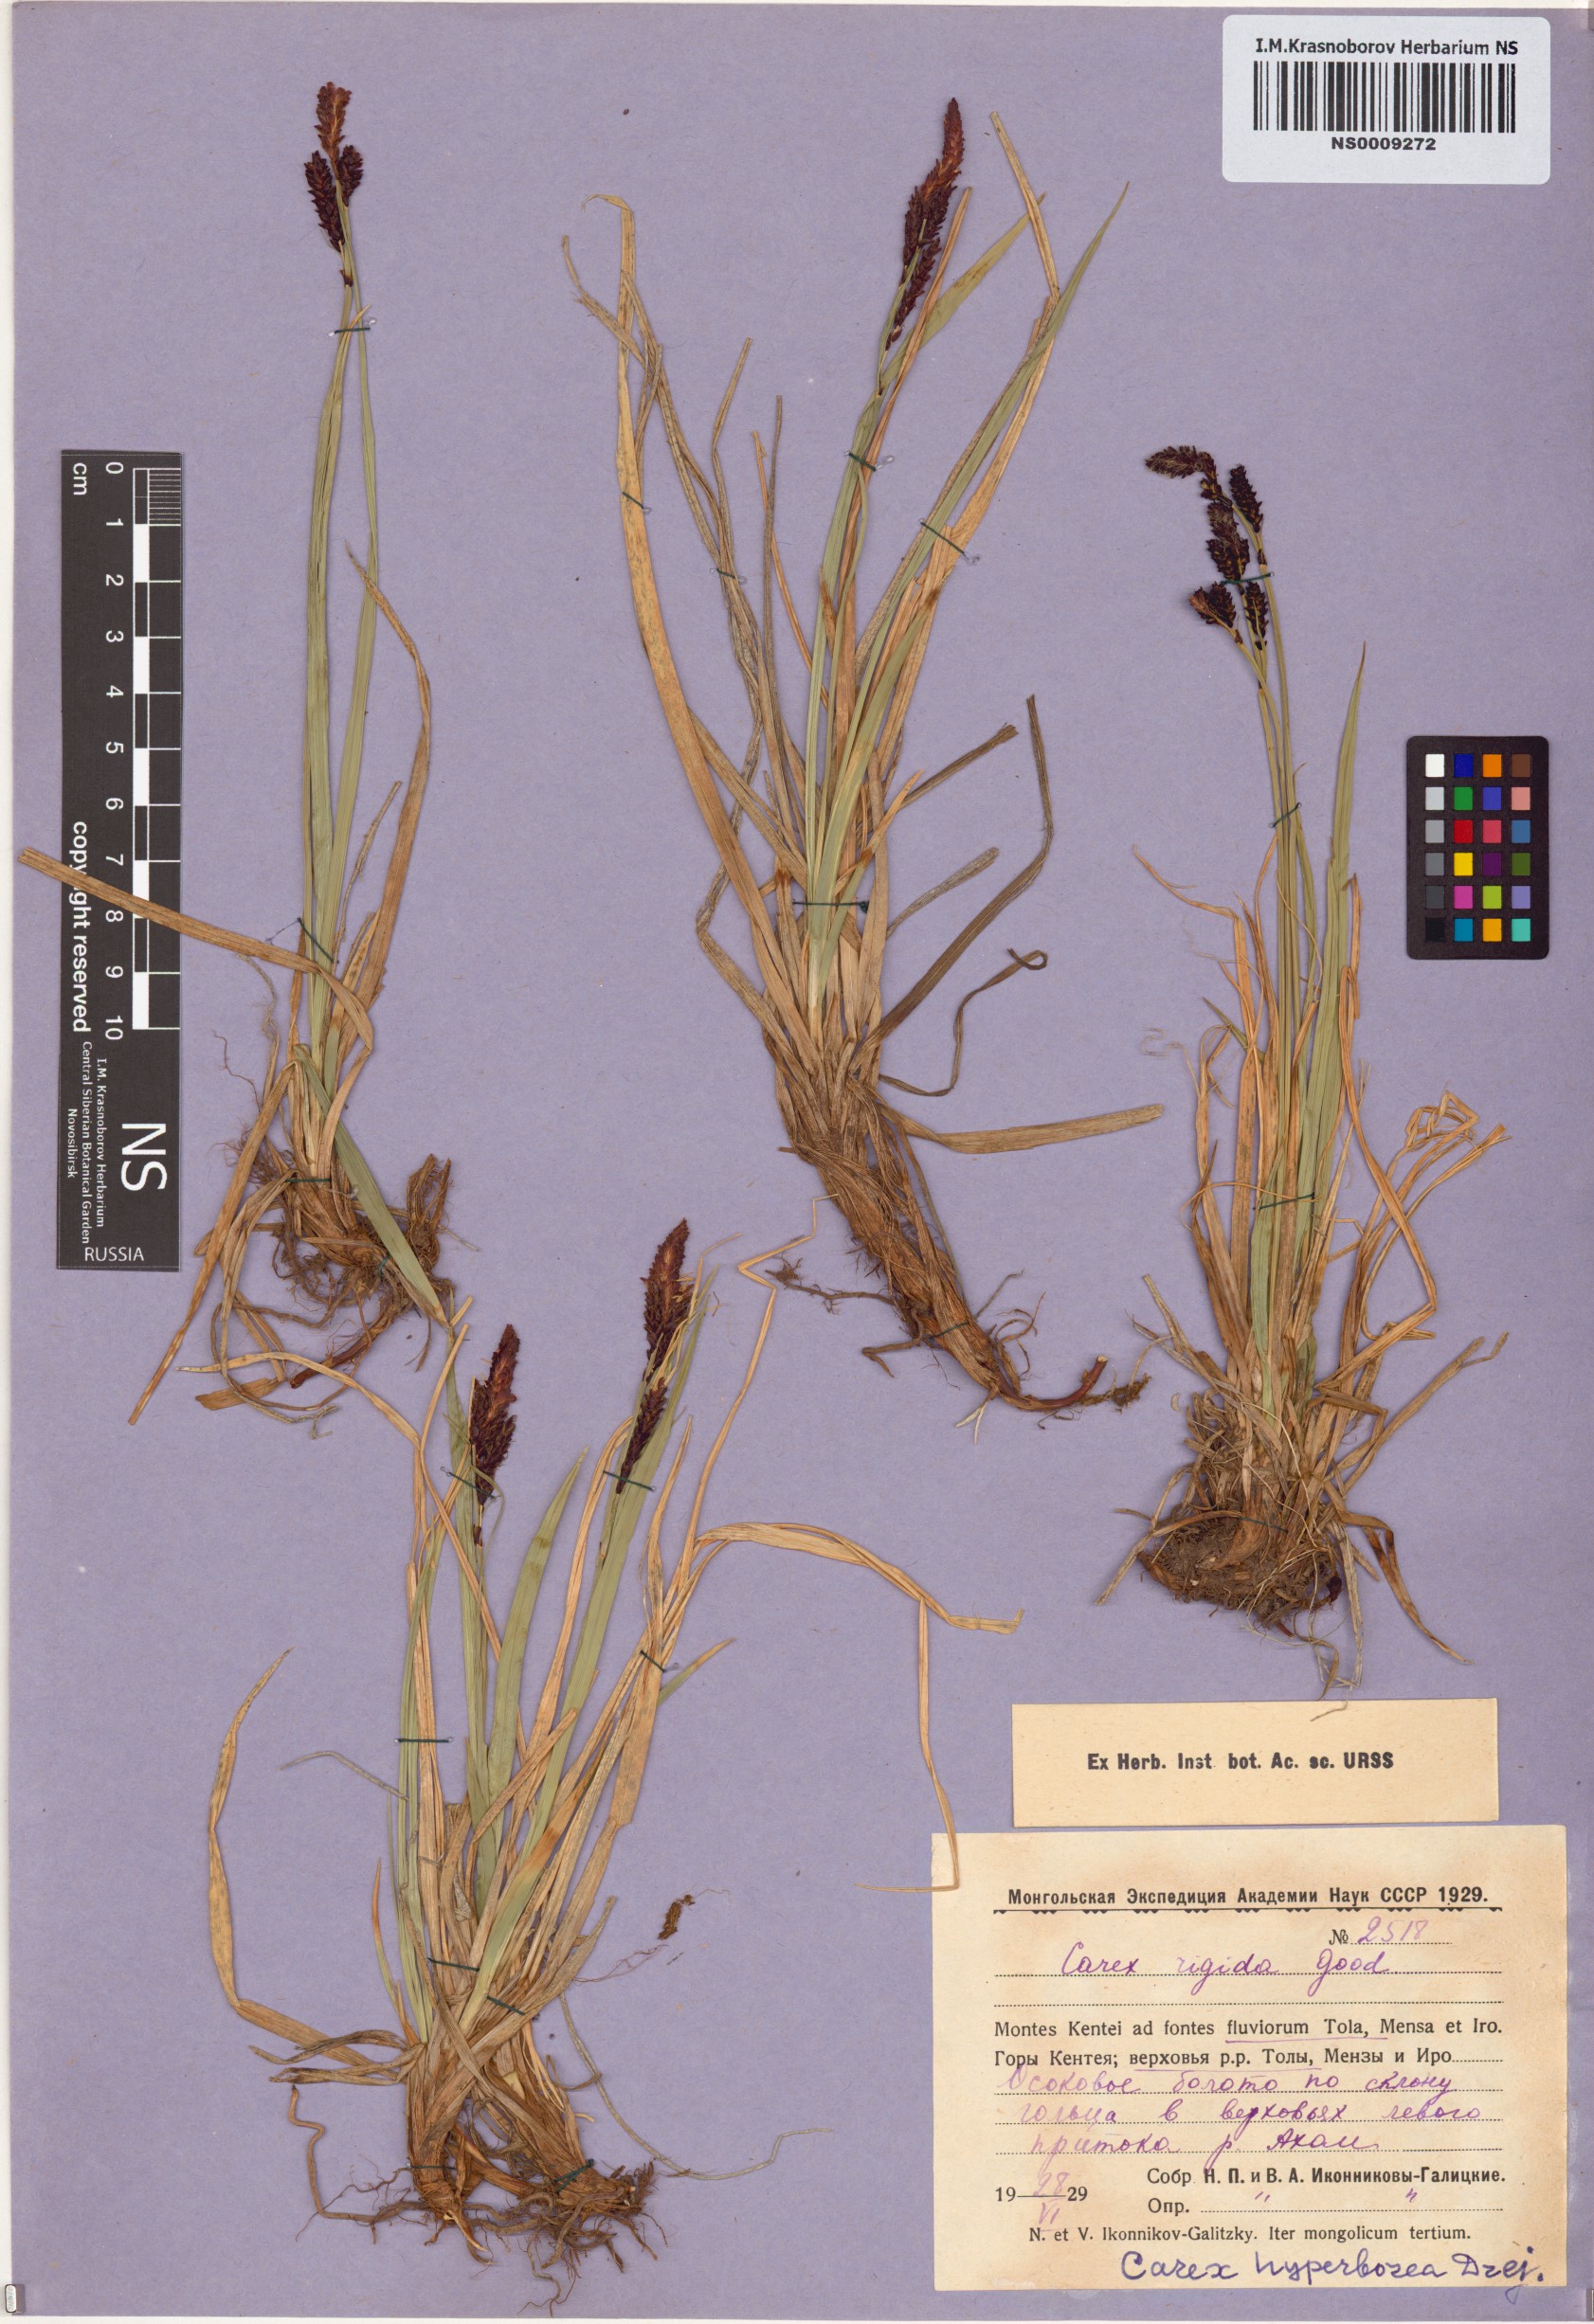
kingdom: Plantae
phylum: Tracheophyta
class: Liliopsida
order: Poales
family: Cyperaceae
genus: Carex
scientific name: Carex dacica
